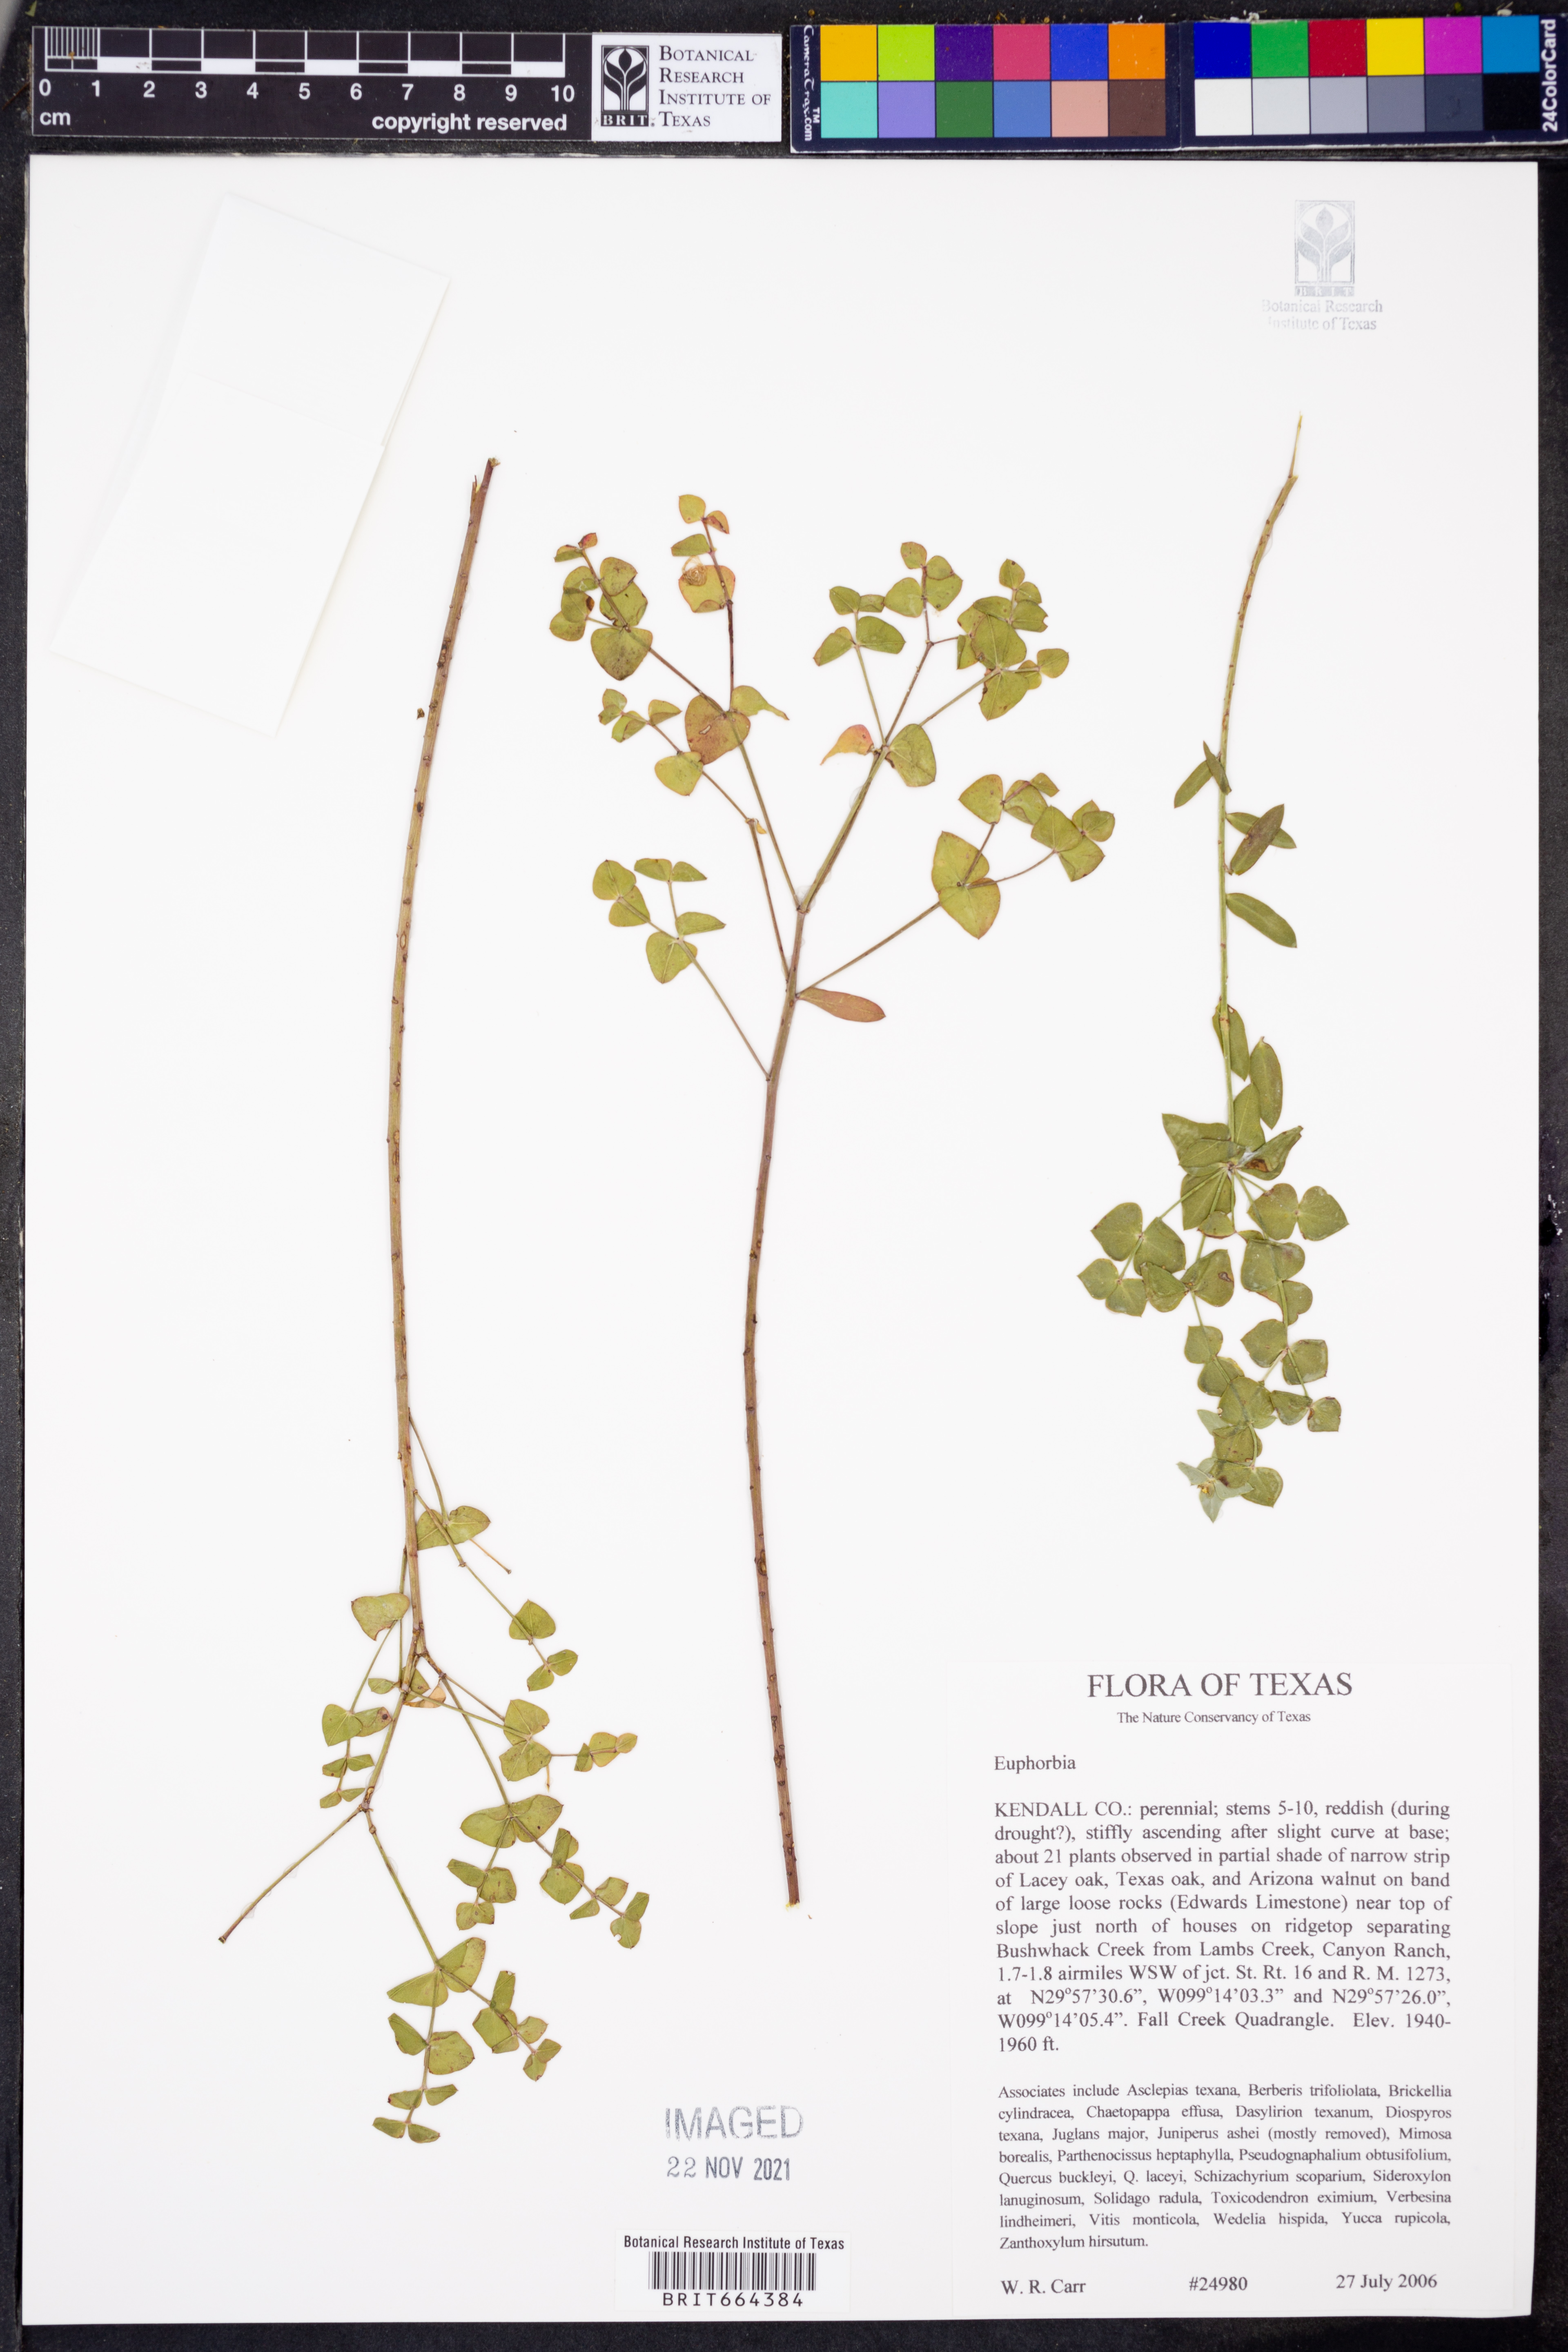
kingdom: Plantae
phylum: Tracheophyta
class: Magnoliopsida
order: Malpighiales
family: Euphorbiaceae
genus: Euphorbia
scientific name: Euphorbia
